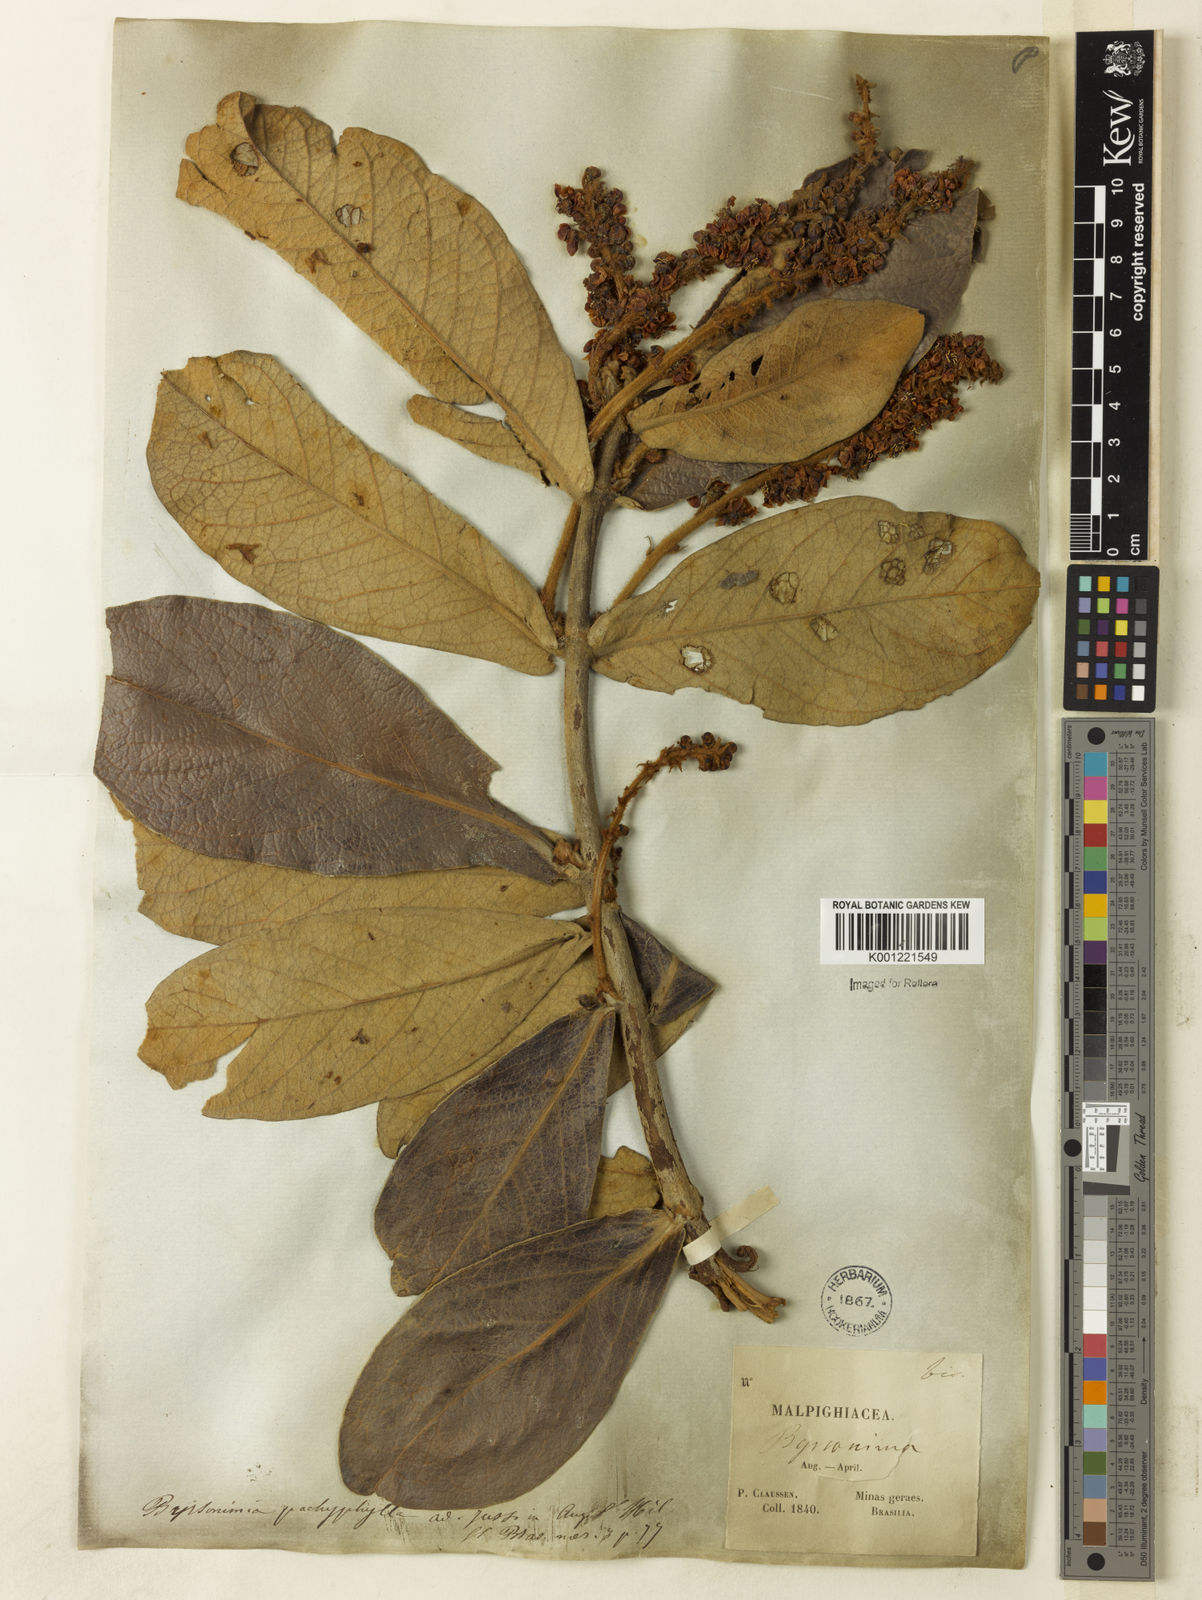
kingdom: Plantae
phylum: Tracheophyta
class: Magnoliopsida
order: Malpighiales
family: Malpighiaceae
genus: Byrsonima
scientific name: Byrsonima pachyphylla
